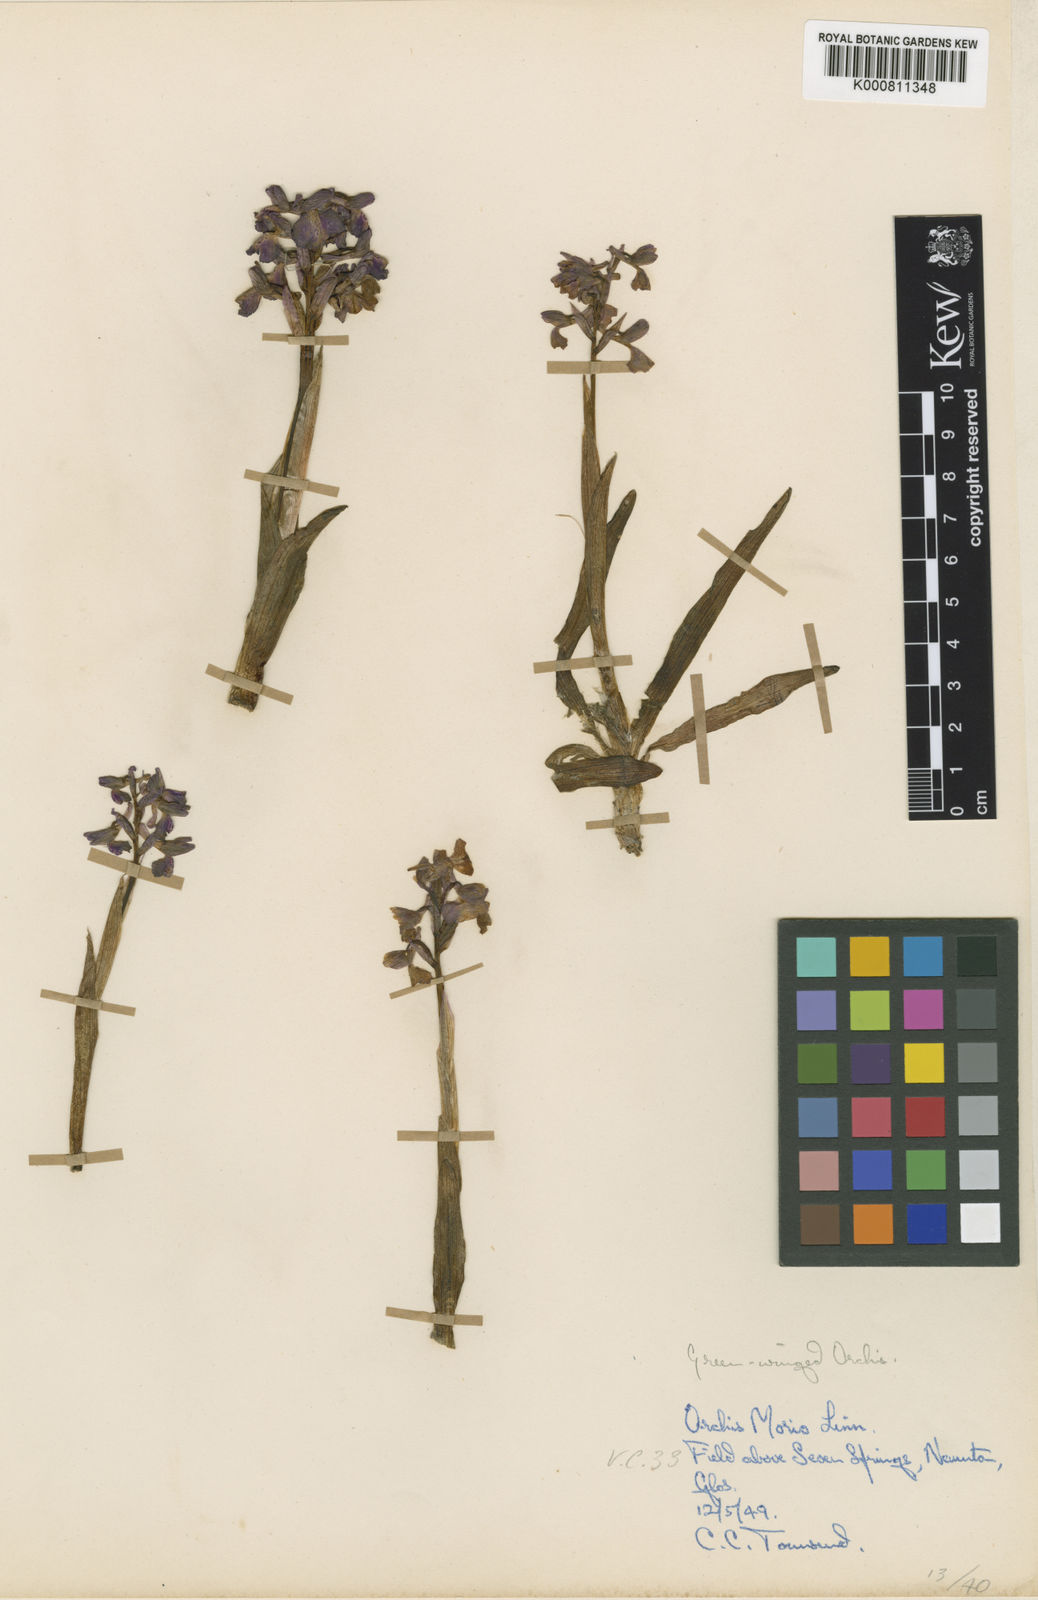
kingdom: Plantae
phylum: Tracheophyta
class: Liliopsida
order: Asparagales
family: Orchidaceae
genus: Anacamptis
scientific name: Anacamptis morio
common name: Green-winged orchid
